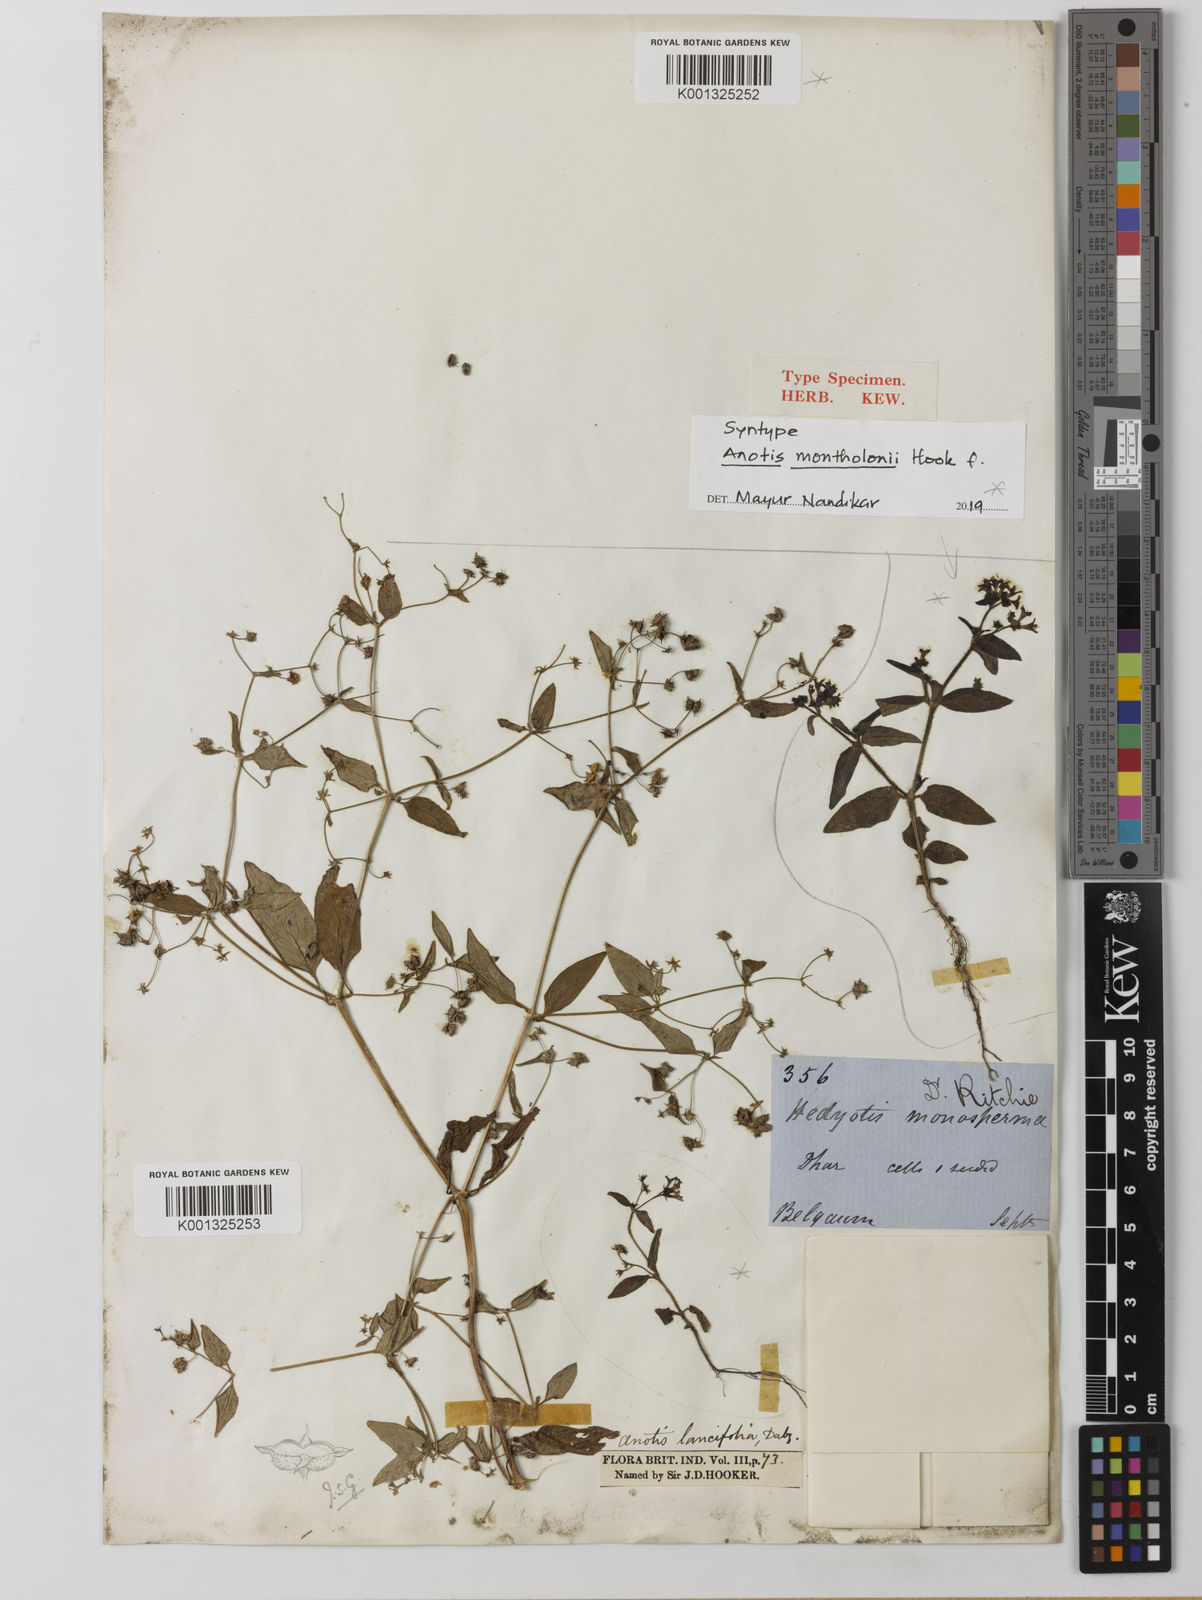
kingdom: Plantae
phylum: Tracheophyta
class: Magnoliopsida
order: Gentianales
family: Rubiaceae
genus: Neanotis
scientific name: Neanotis montholonii
